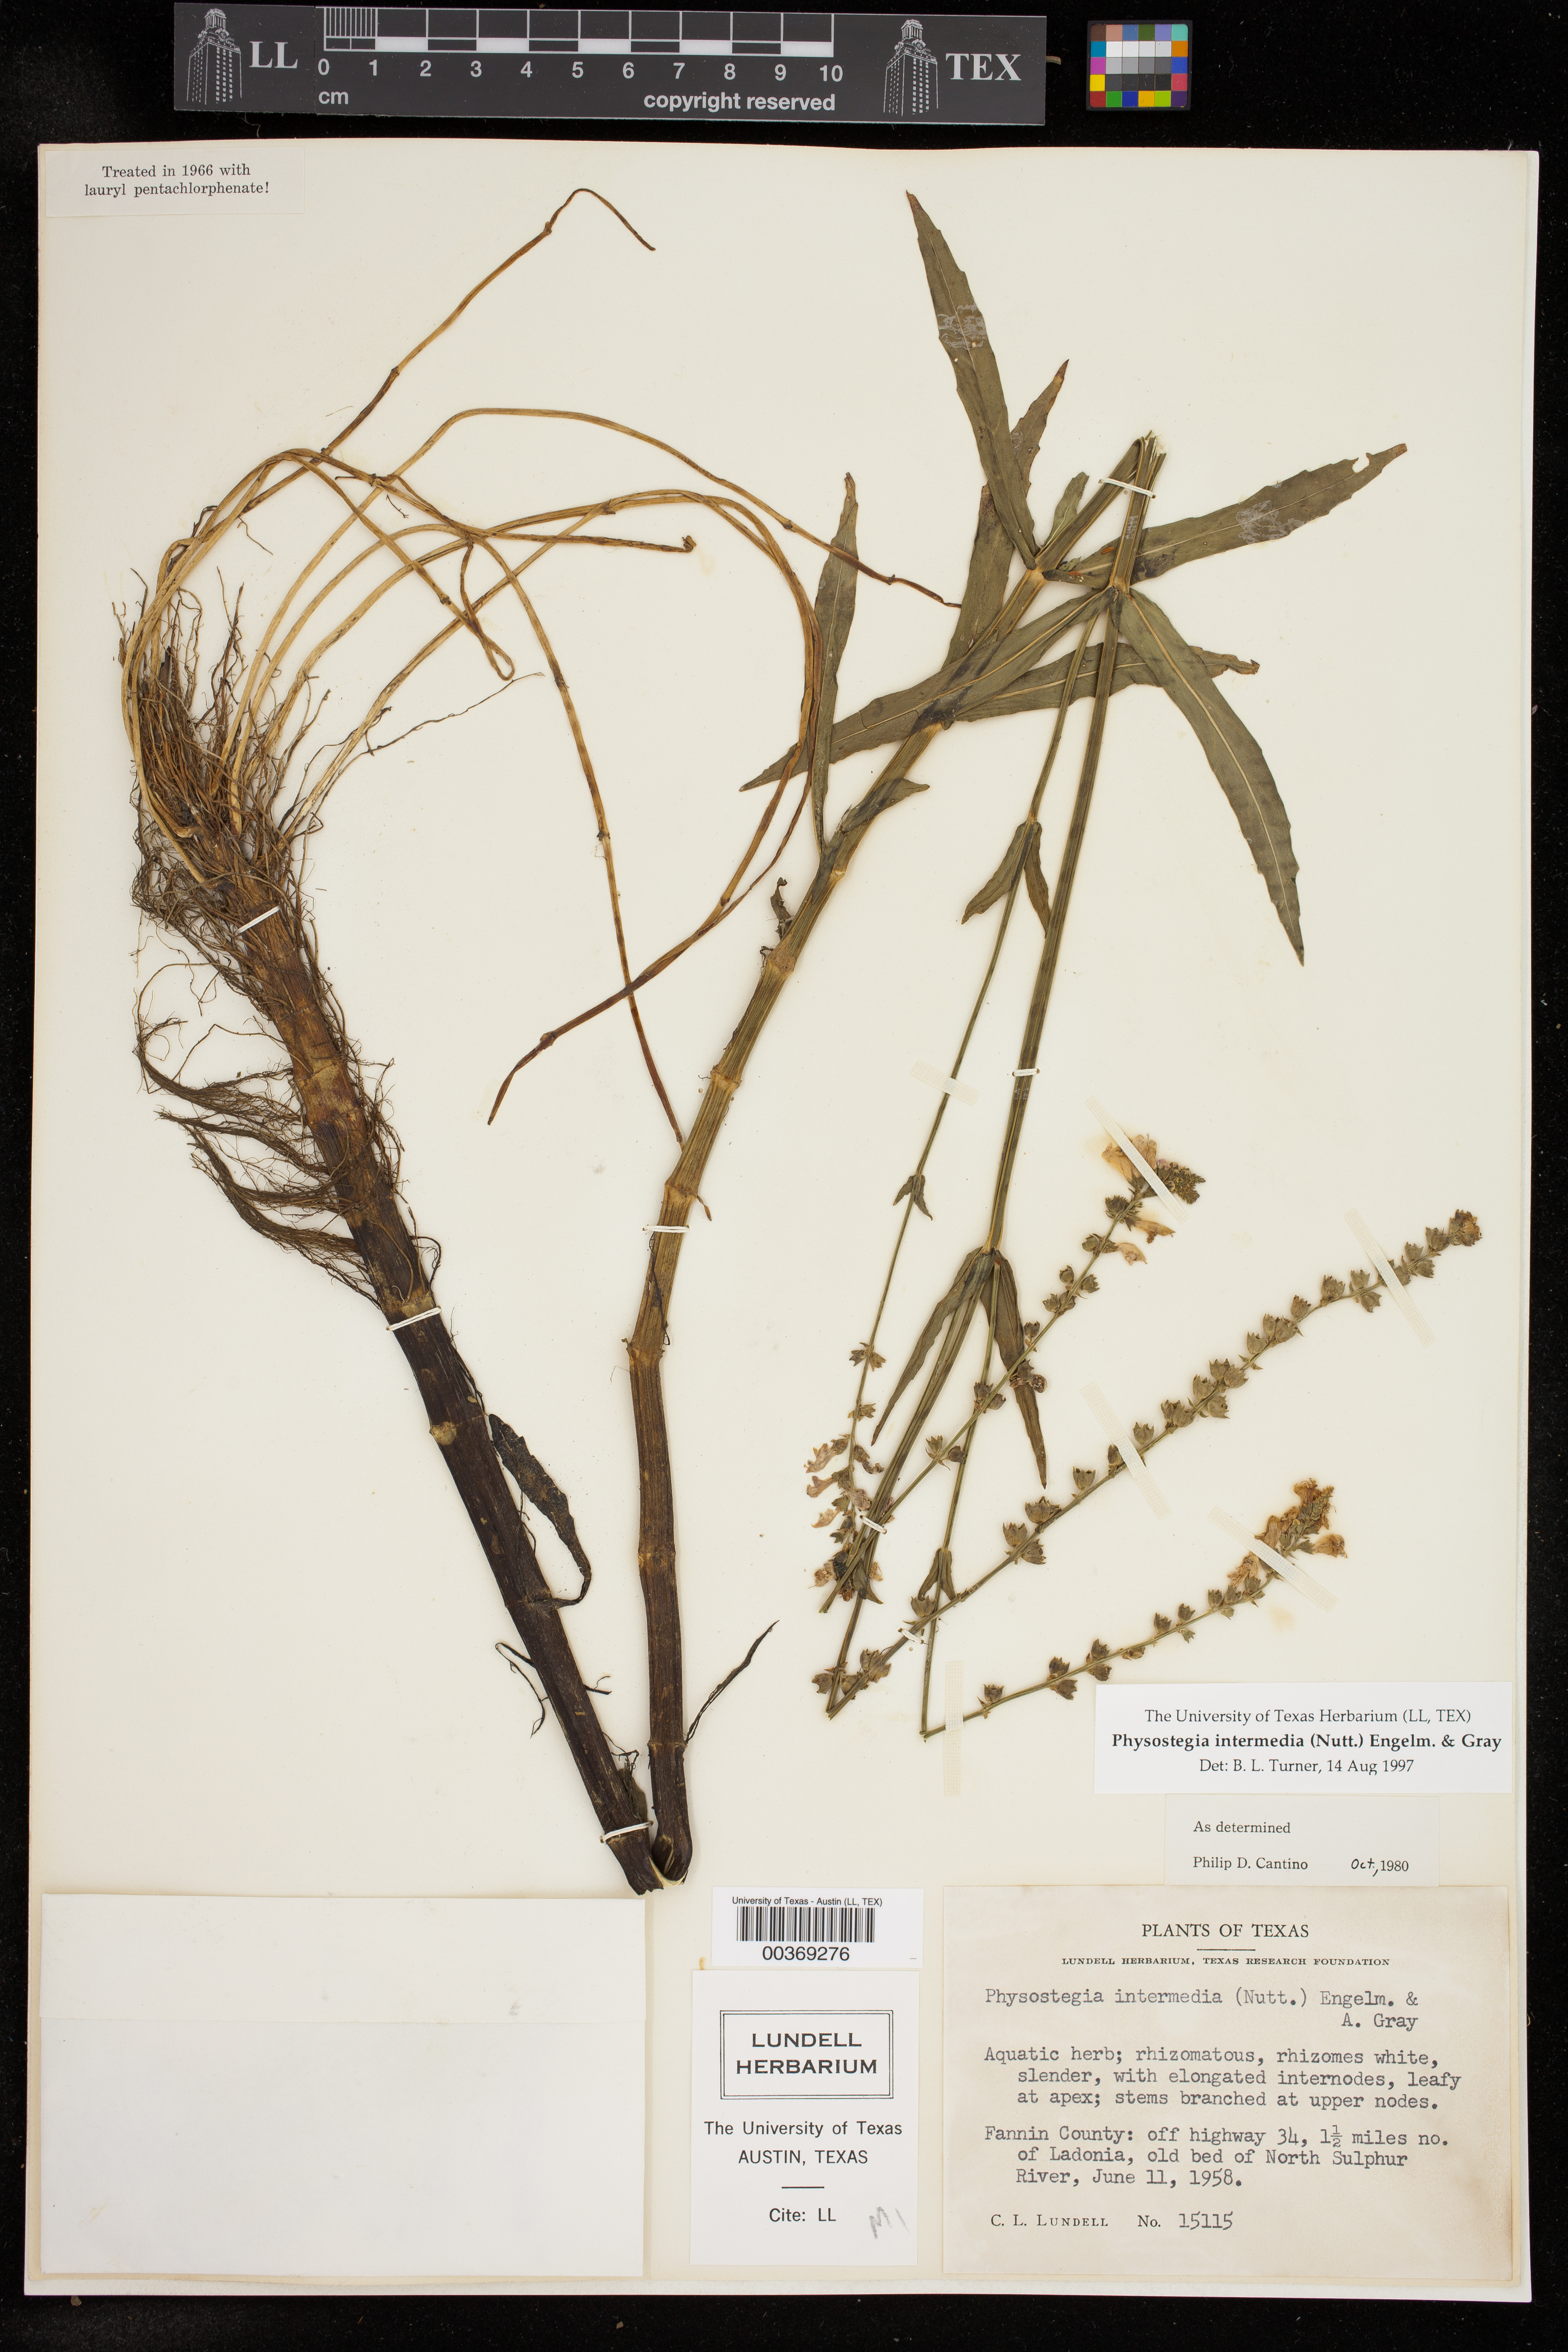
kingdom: Plantae
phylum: Tracheophyta
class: Magnoliopsida
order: Lamiales
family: Lamiaceae
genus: Physostegia
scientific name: Physostegia intermedia
